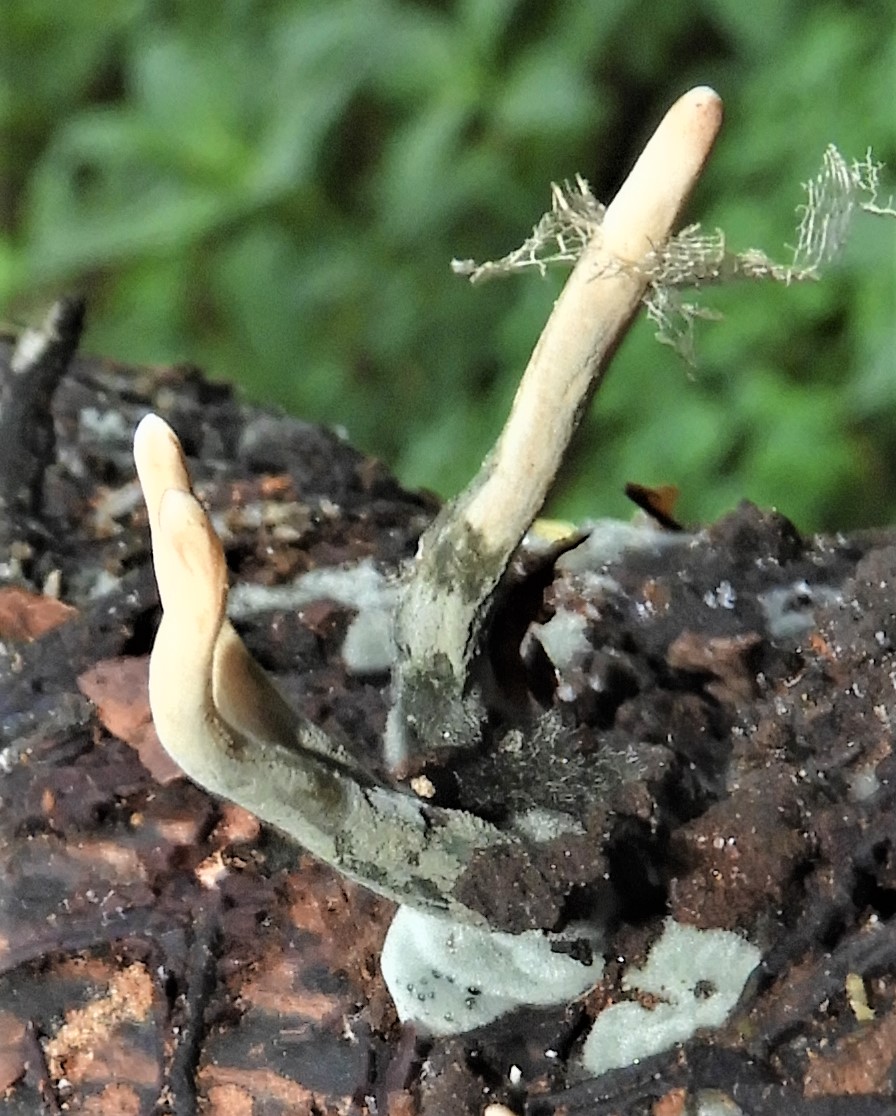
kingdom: Fungi
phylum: Ascomycota
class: Sordariomycetes
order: Xylariales
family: Xylariaceae
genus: Xylaria
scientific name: Xylaria hypoxylon
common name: grenet stødsvamp
